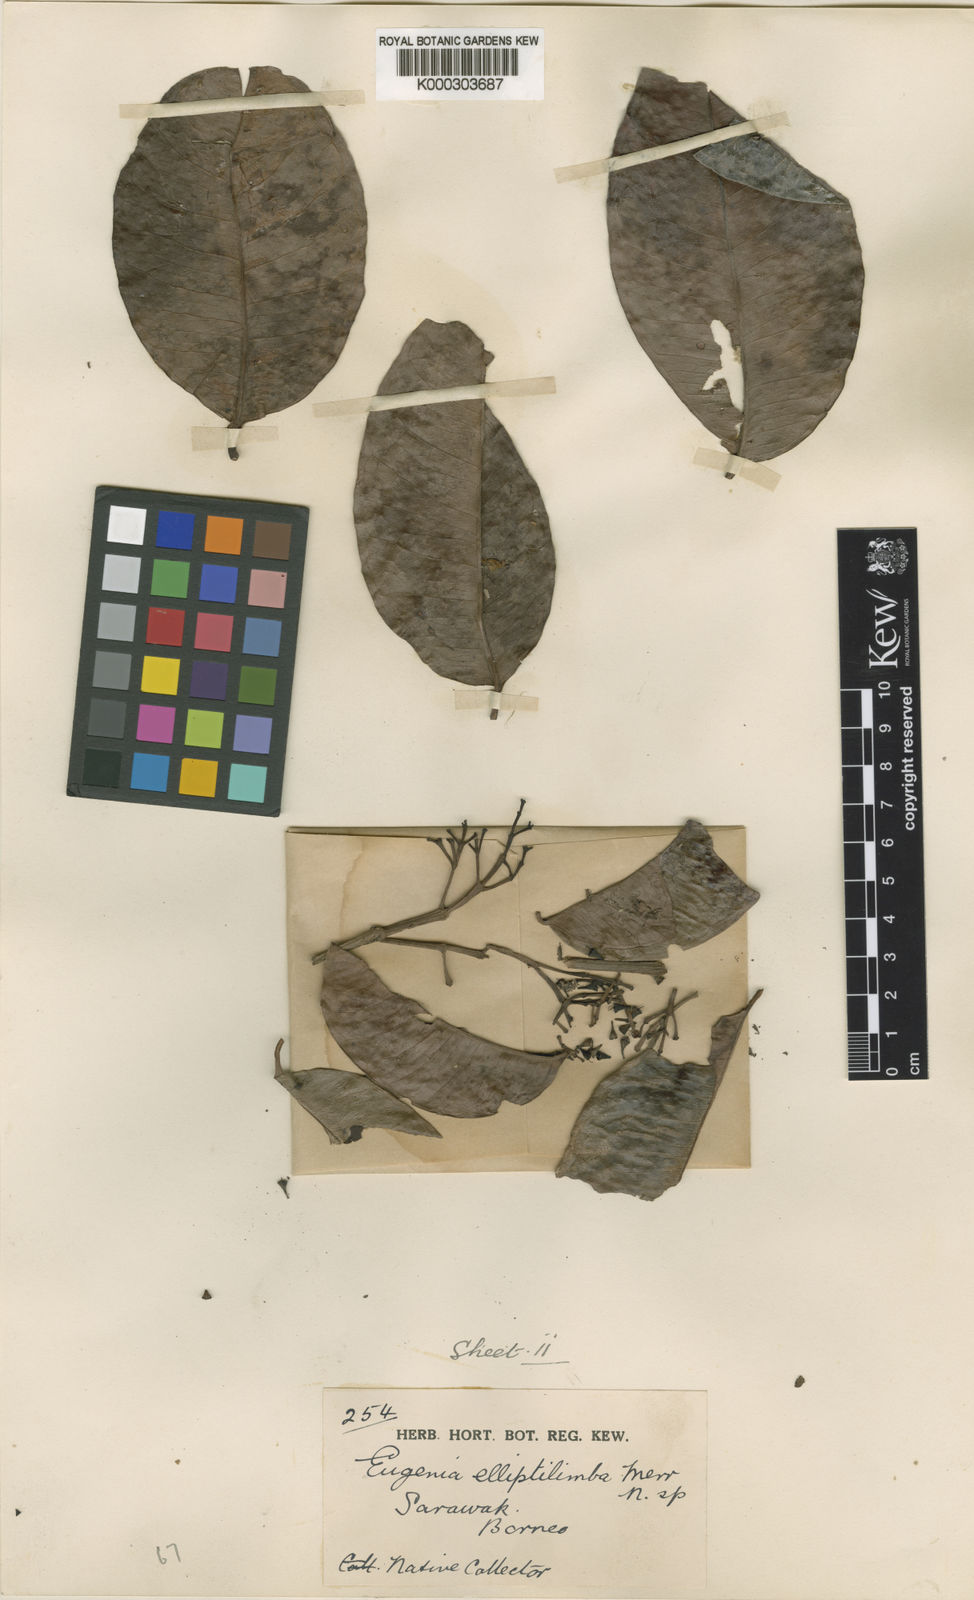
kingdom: Plantae
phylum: Tracheophyta
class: Magnoliopsida
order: Myrtales
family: Myrtaceae
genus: Syzygium
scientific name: Syzygium elliptilimbum
